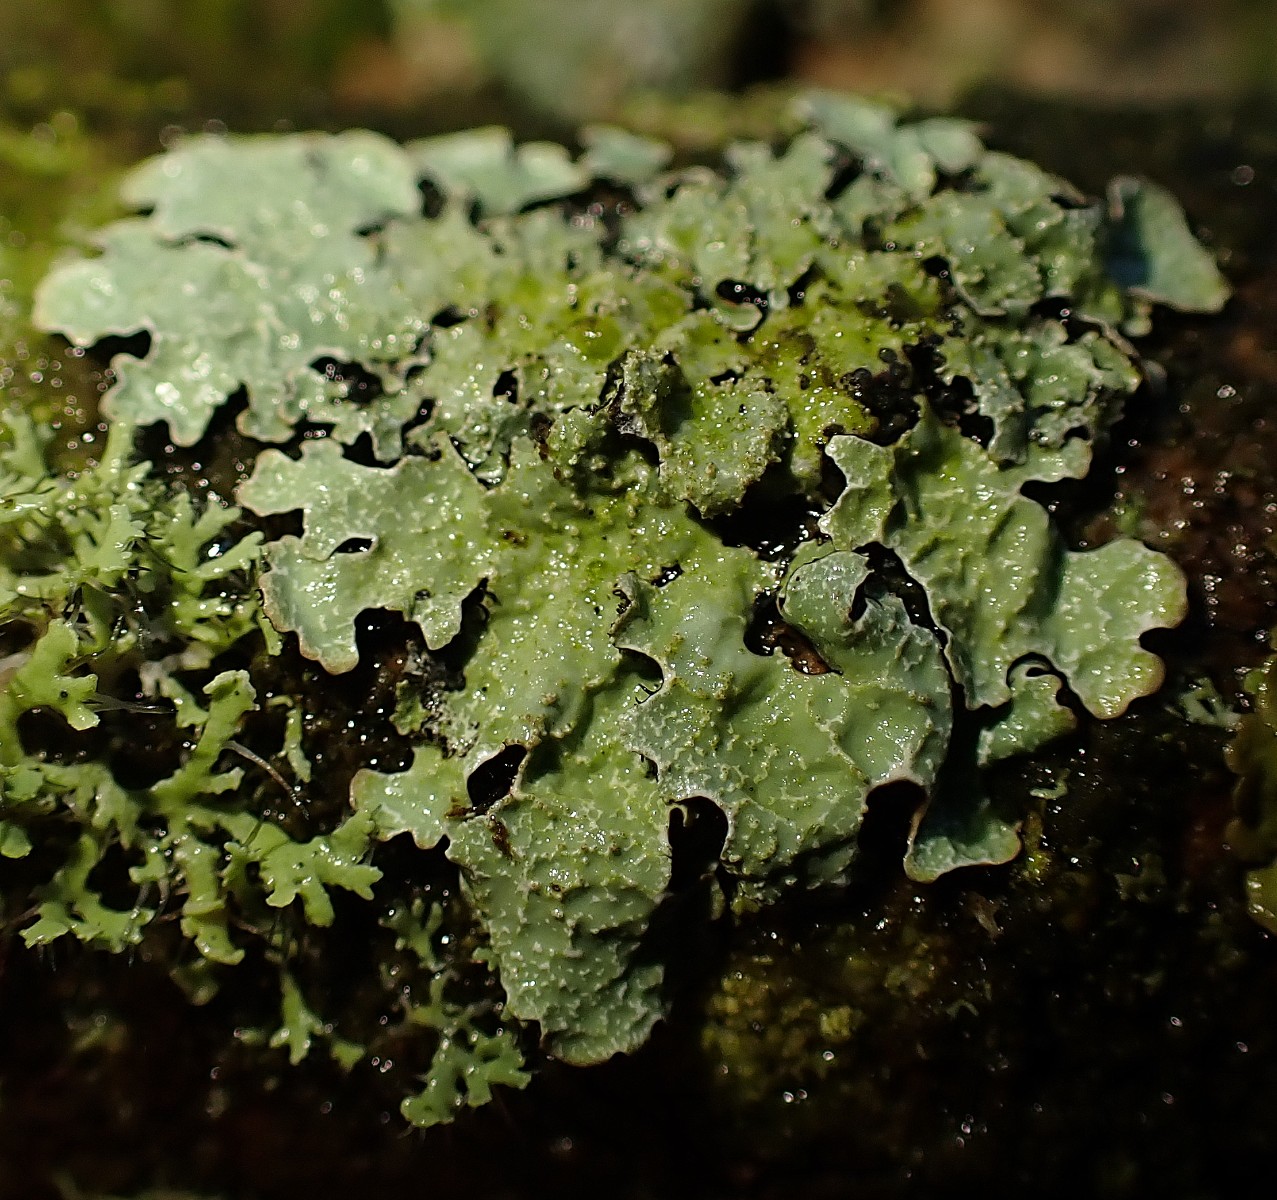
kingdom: Fungi
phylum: Ascomycota
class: Lecanoromycetes
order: Lecanorales
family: Parmeliaceae
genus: Parmelia
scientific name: Parmelia sulcata
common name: rynket skållav
